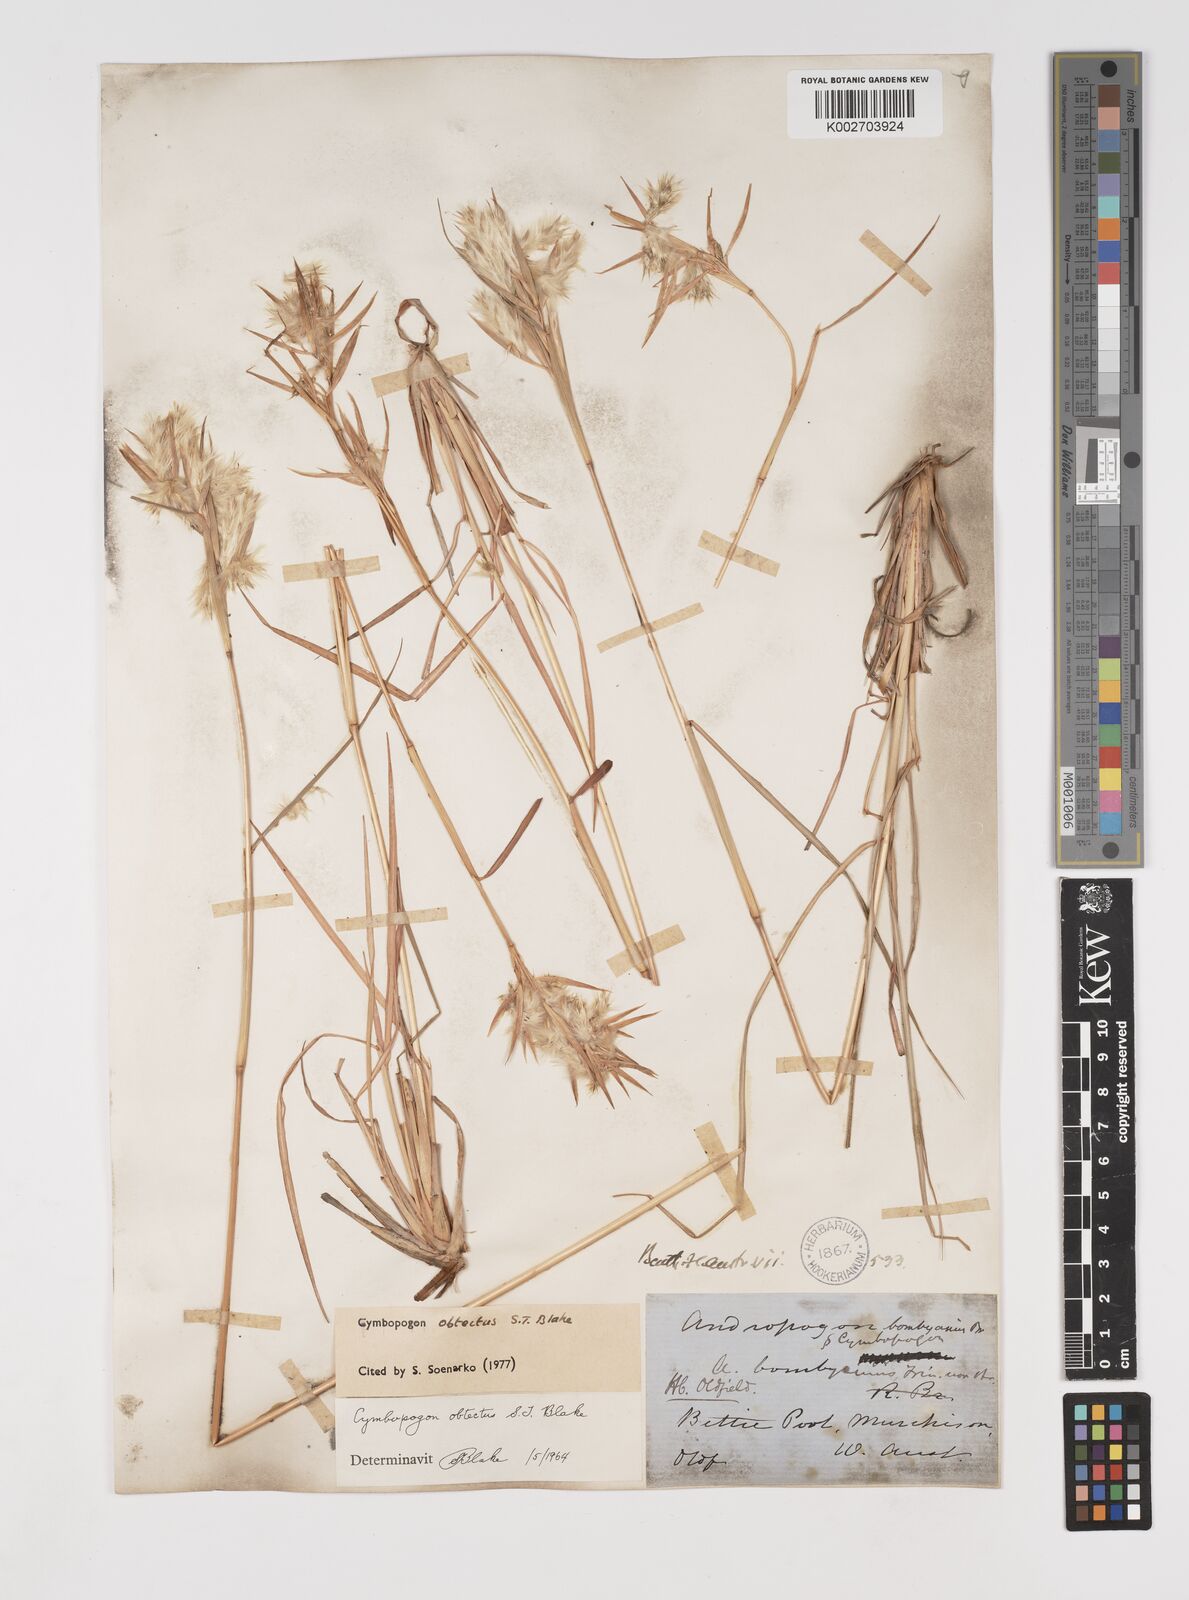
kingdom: Plantae
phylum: Tracheophyta
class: Liliopsida
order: Poales
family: Poaceae
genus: Cymbopogon
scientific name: Cymbopogon obtectus
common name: Silky heads
